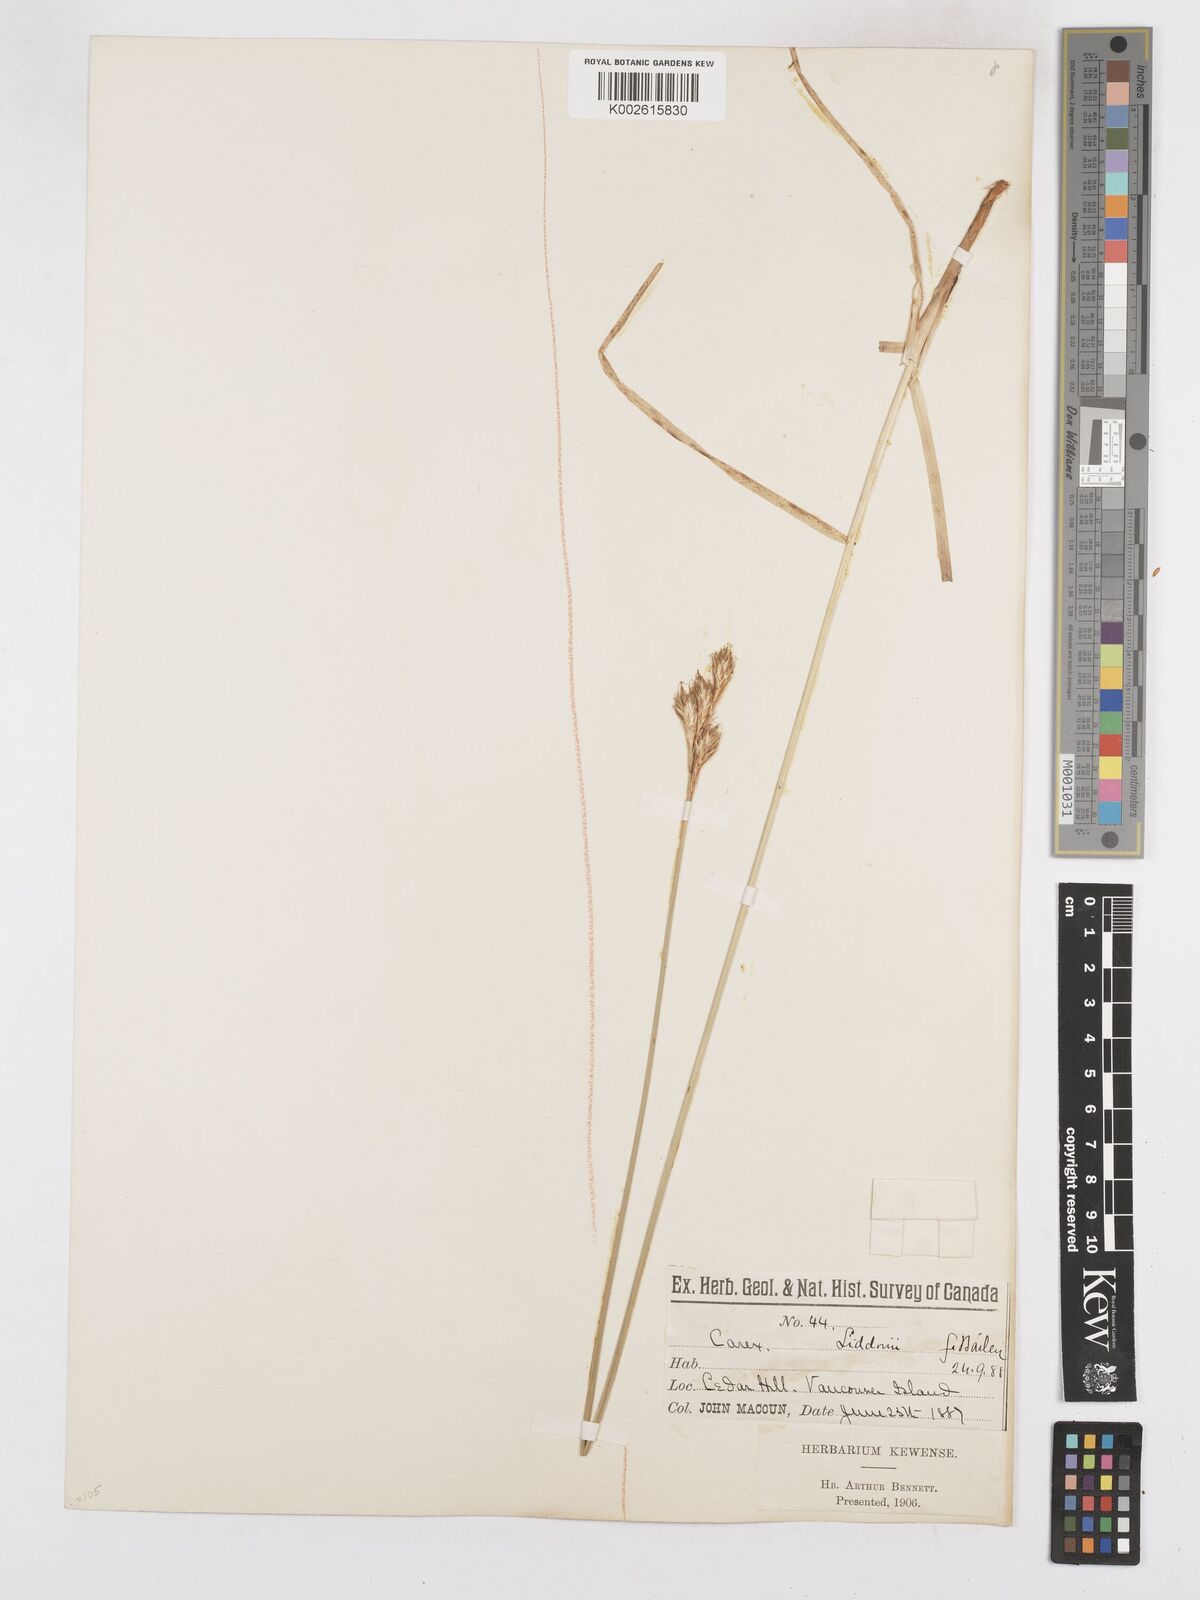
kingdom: Plantae
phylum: Tracheophyta
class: Liliopsida
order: Poales
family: Cyperaceae
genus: Carex
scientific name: Carex petasata
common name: Liddon's sedge
